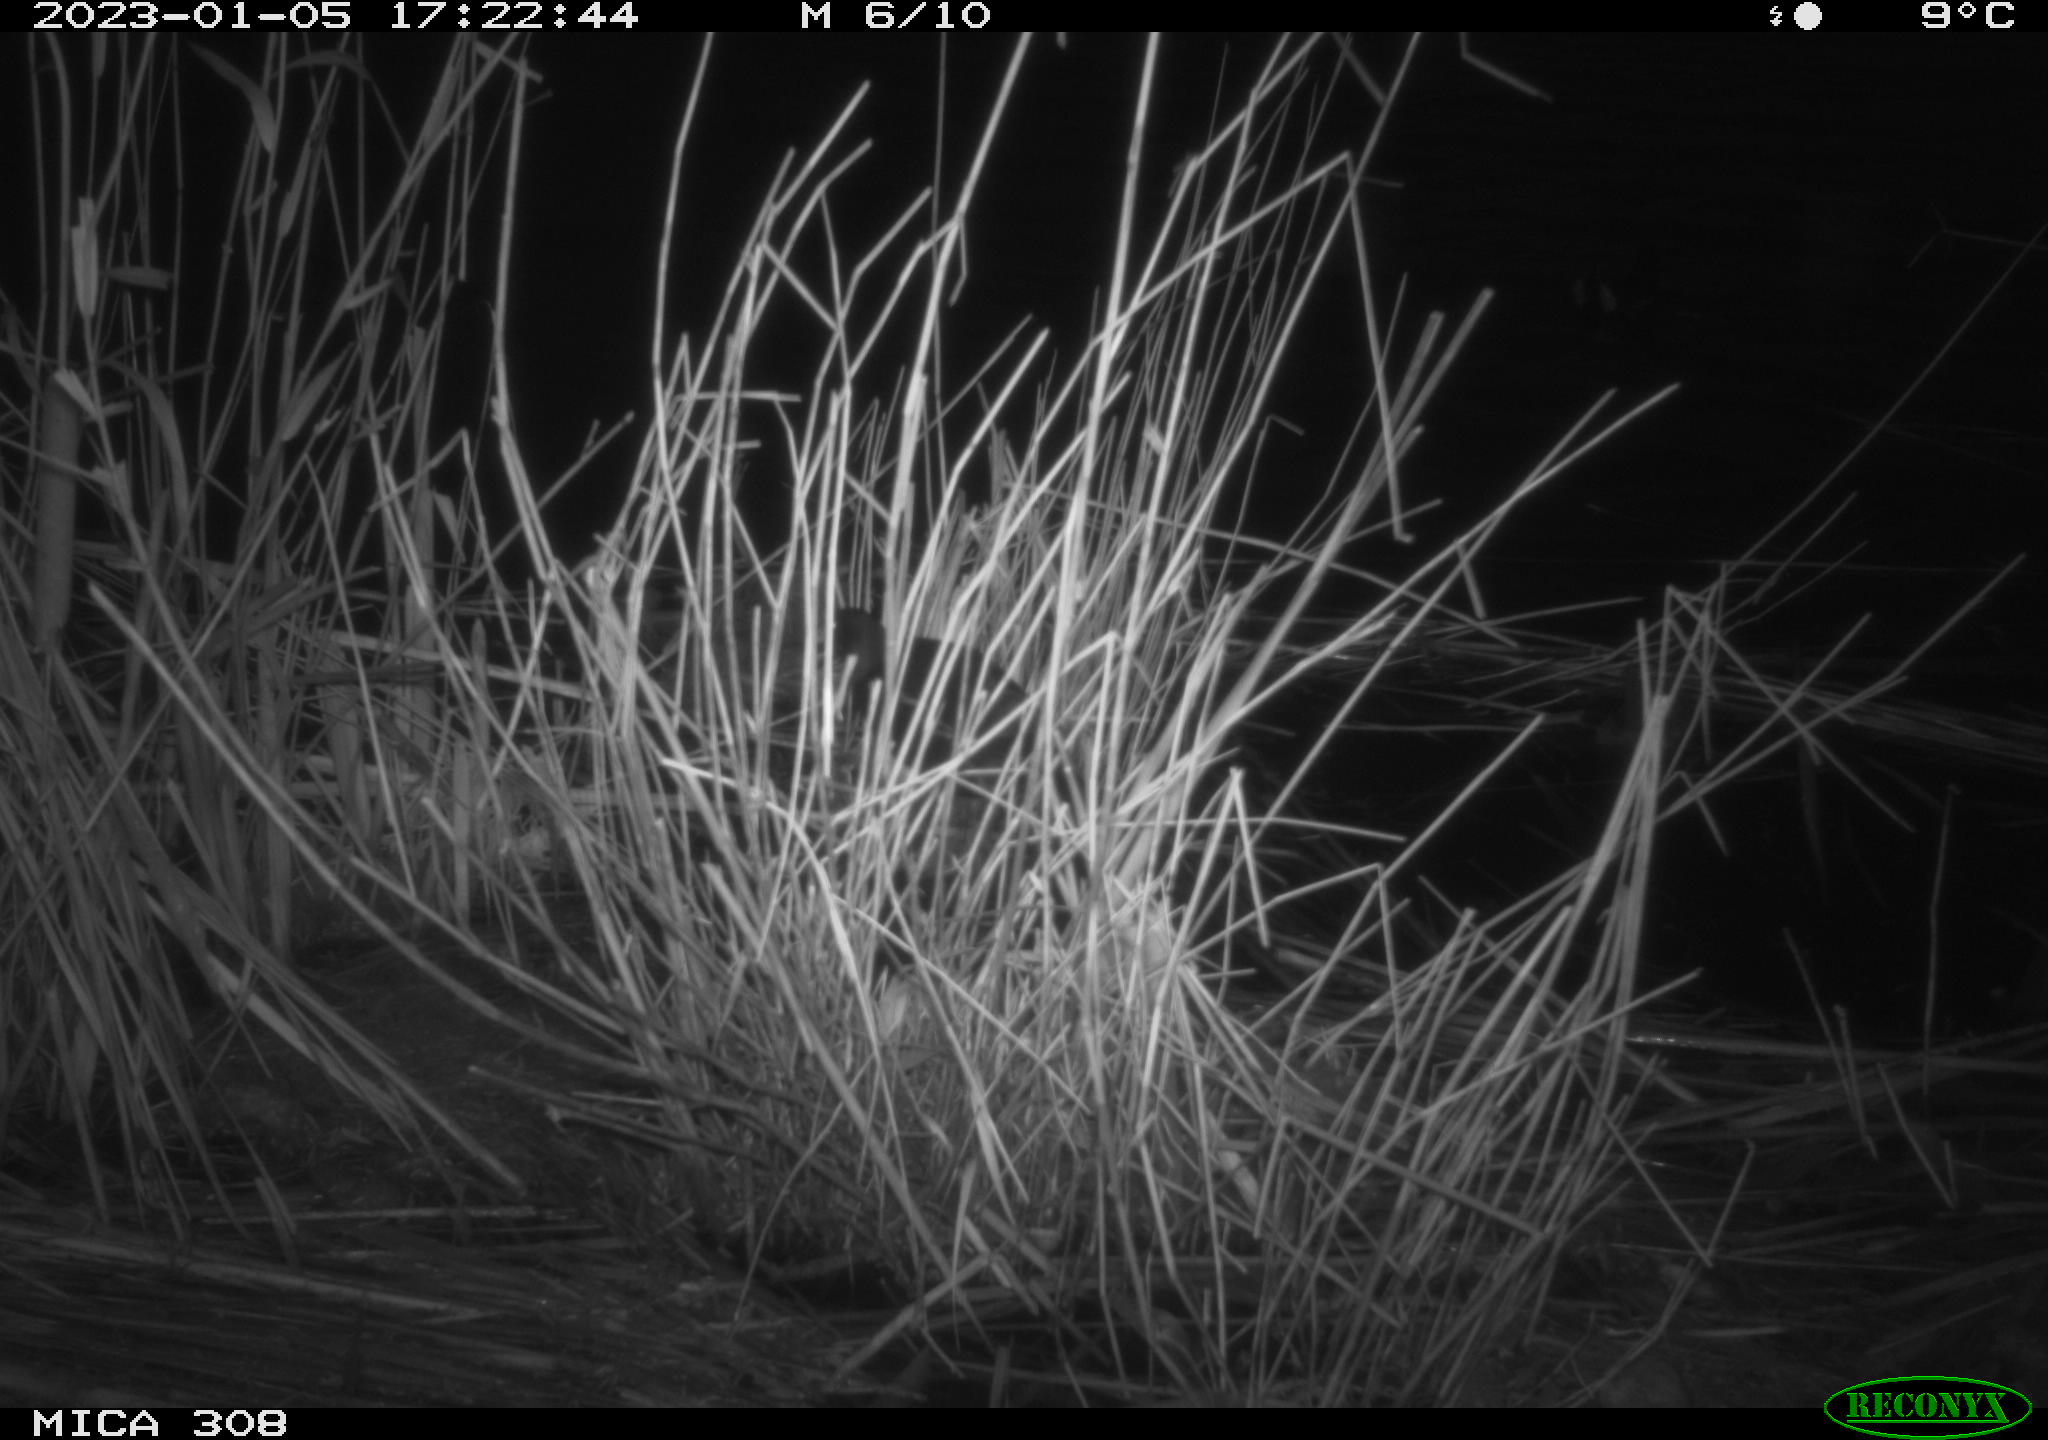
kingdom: Animalia
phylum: Chordata
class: Aves
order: Gruiformes
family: Rallidae
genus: Gallinula
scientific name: Gallinula chloropus
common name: Common moorhen
